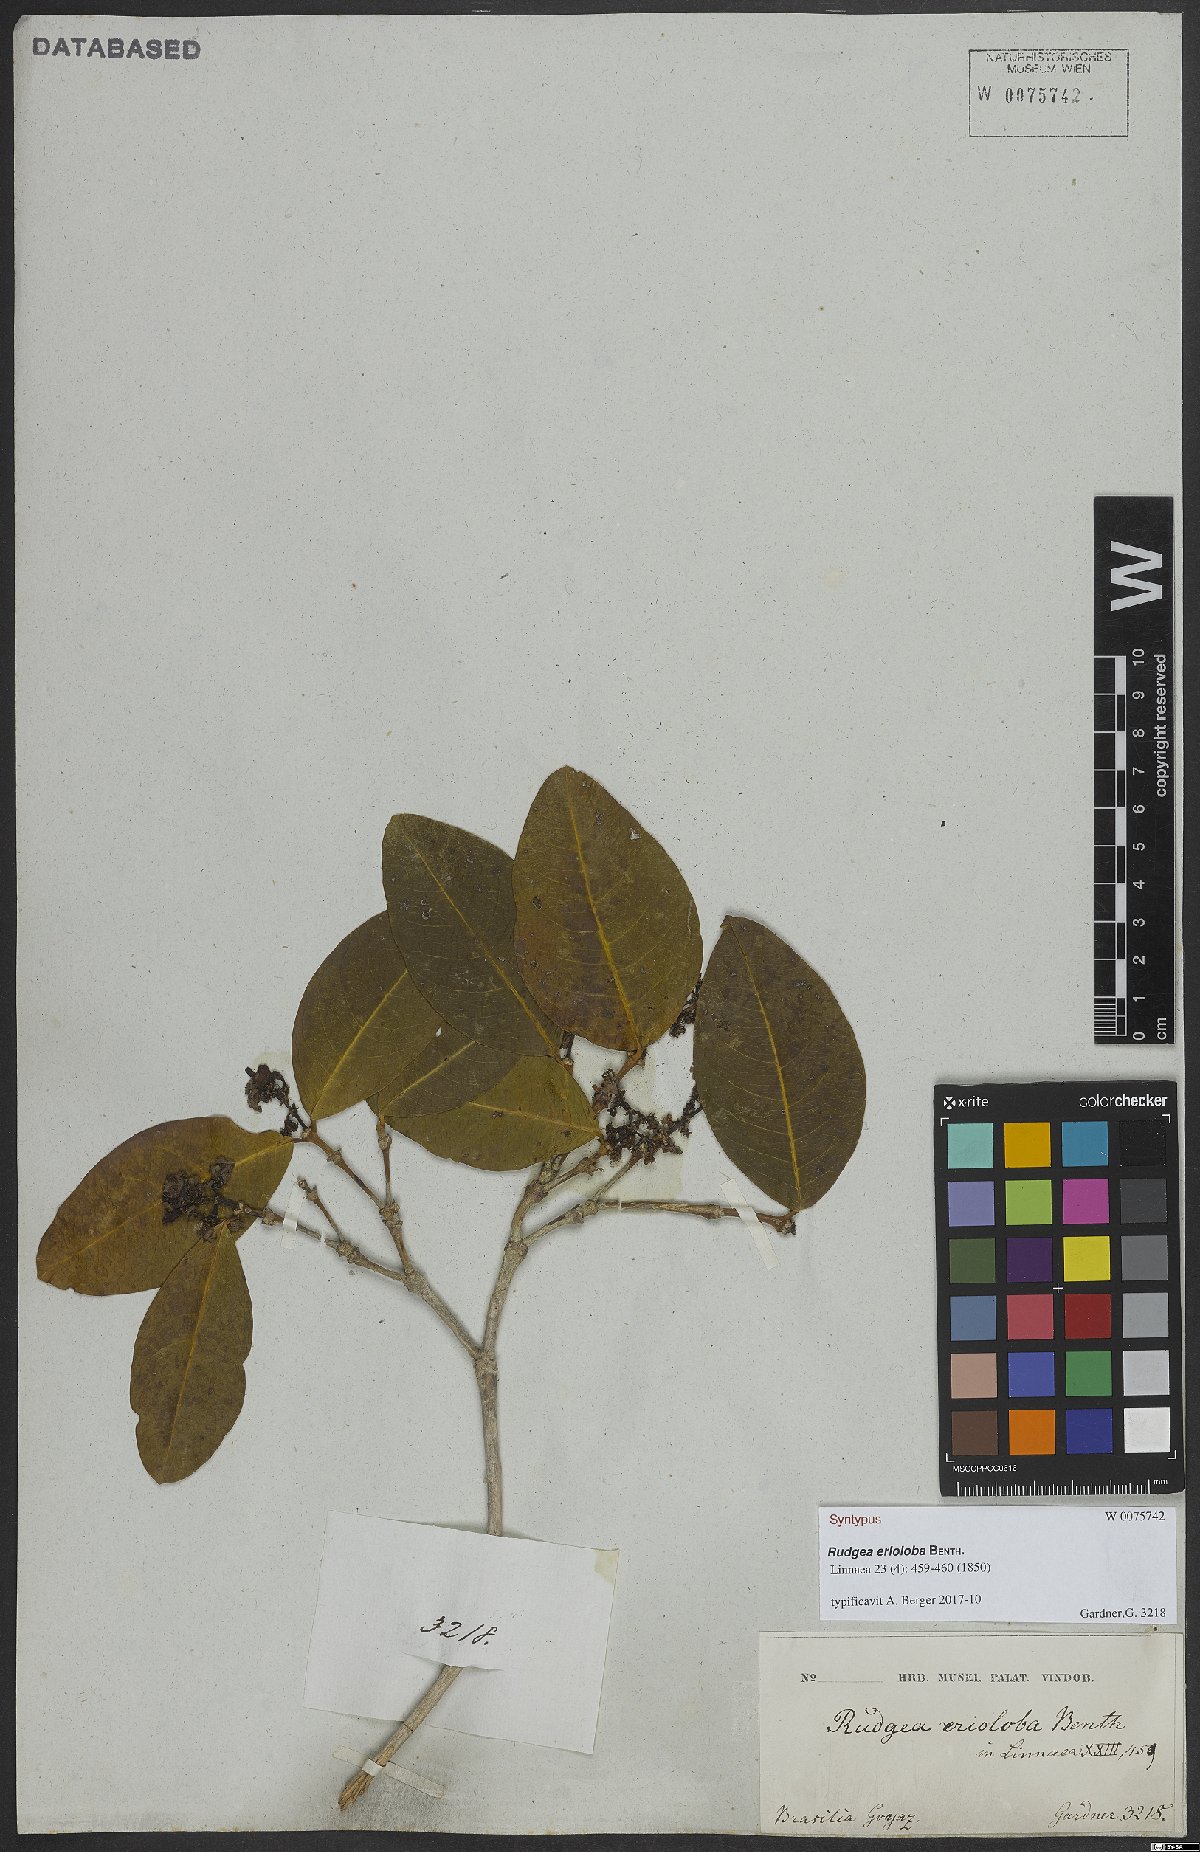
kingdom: Plantae
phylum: Tracheophyta
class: Magnoliopsida
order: Gentianales
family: Rubiaceae
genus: Rudgea
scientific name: Rudgea erioloba
